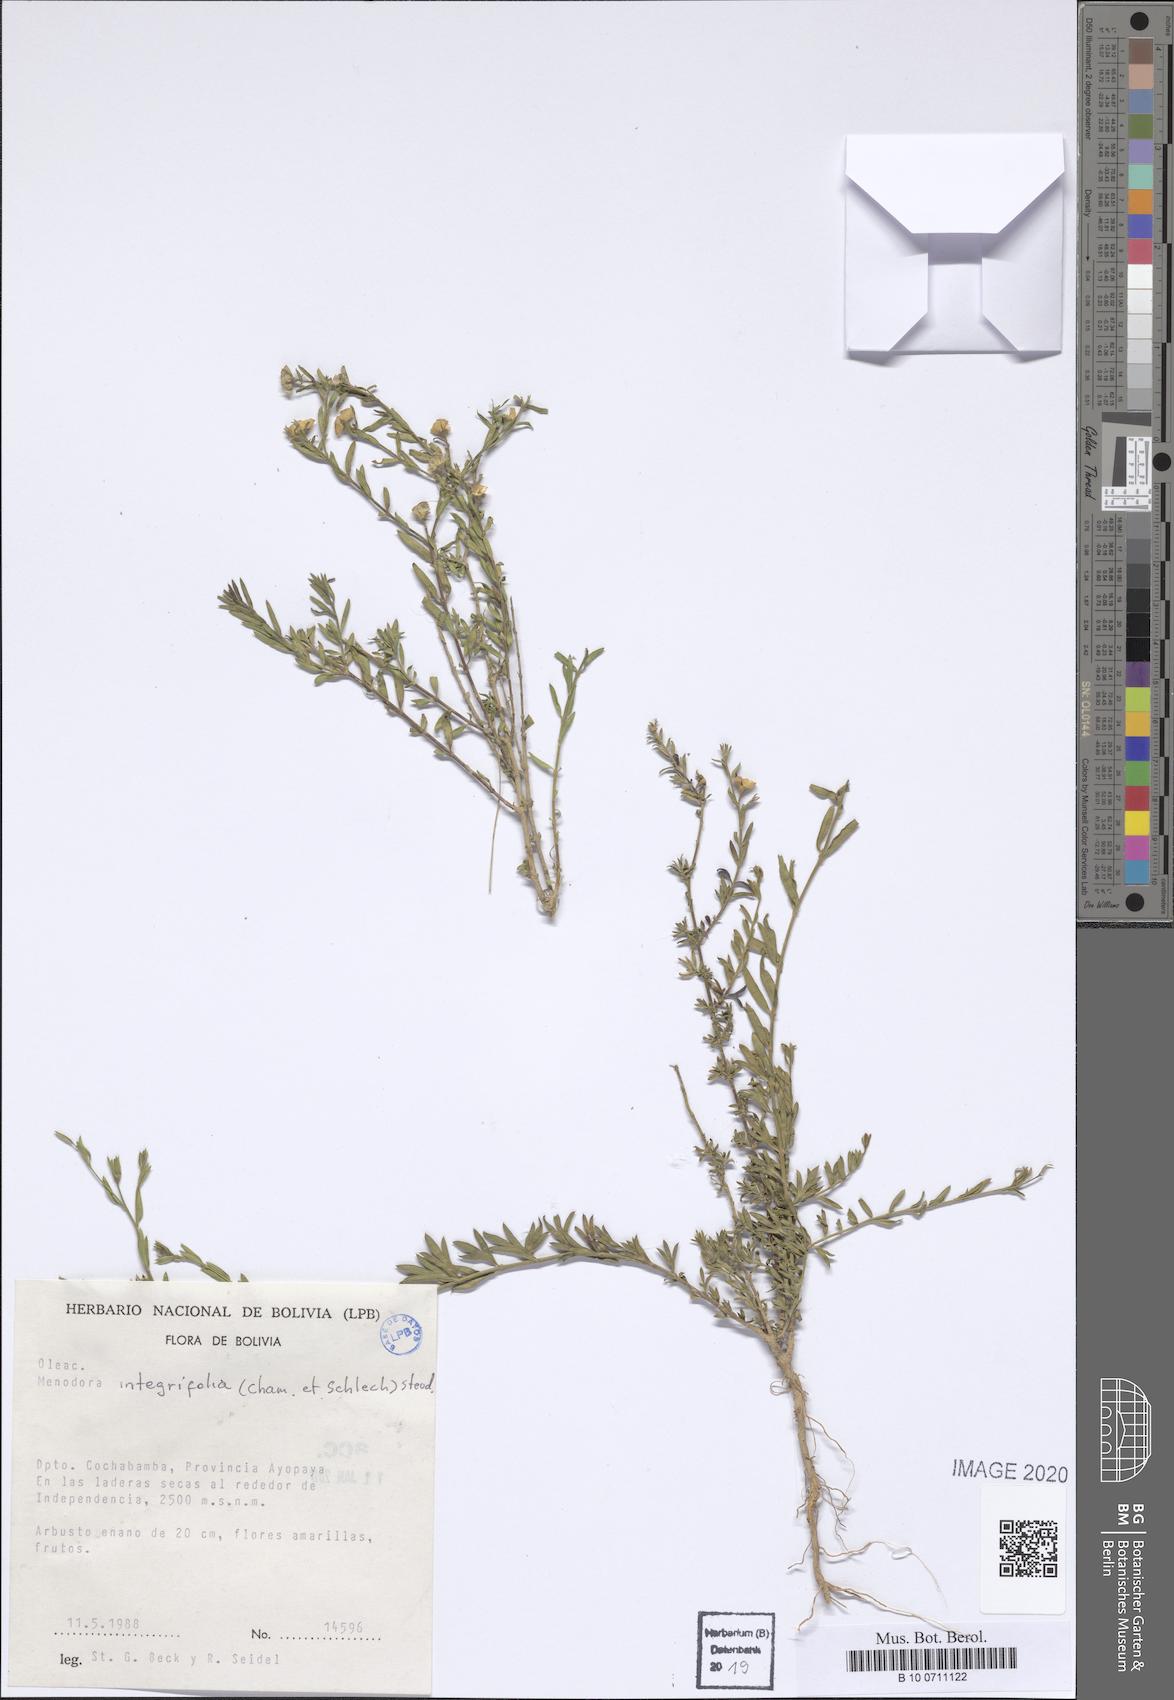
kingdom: Plantae
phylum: Tracheophyta
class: Magnoliopsida
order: Lamiales
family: Oleaceae
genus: Menodora
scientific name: Menodora integrifolia
